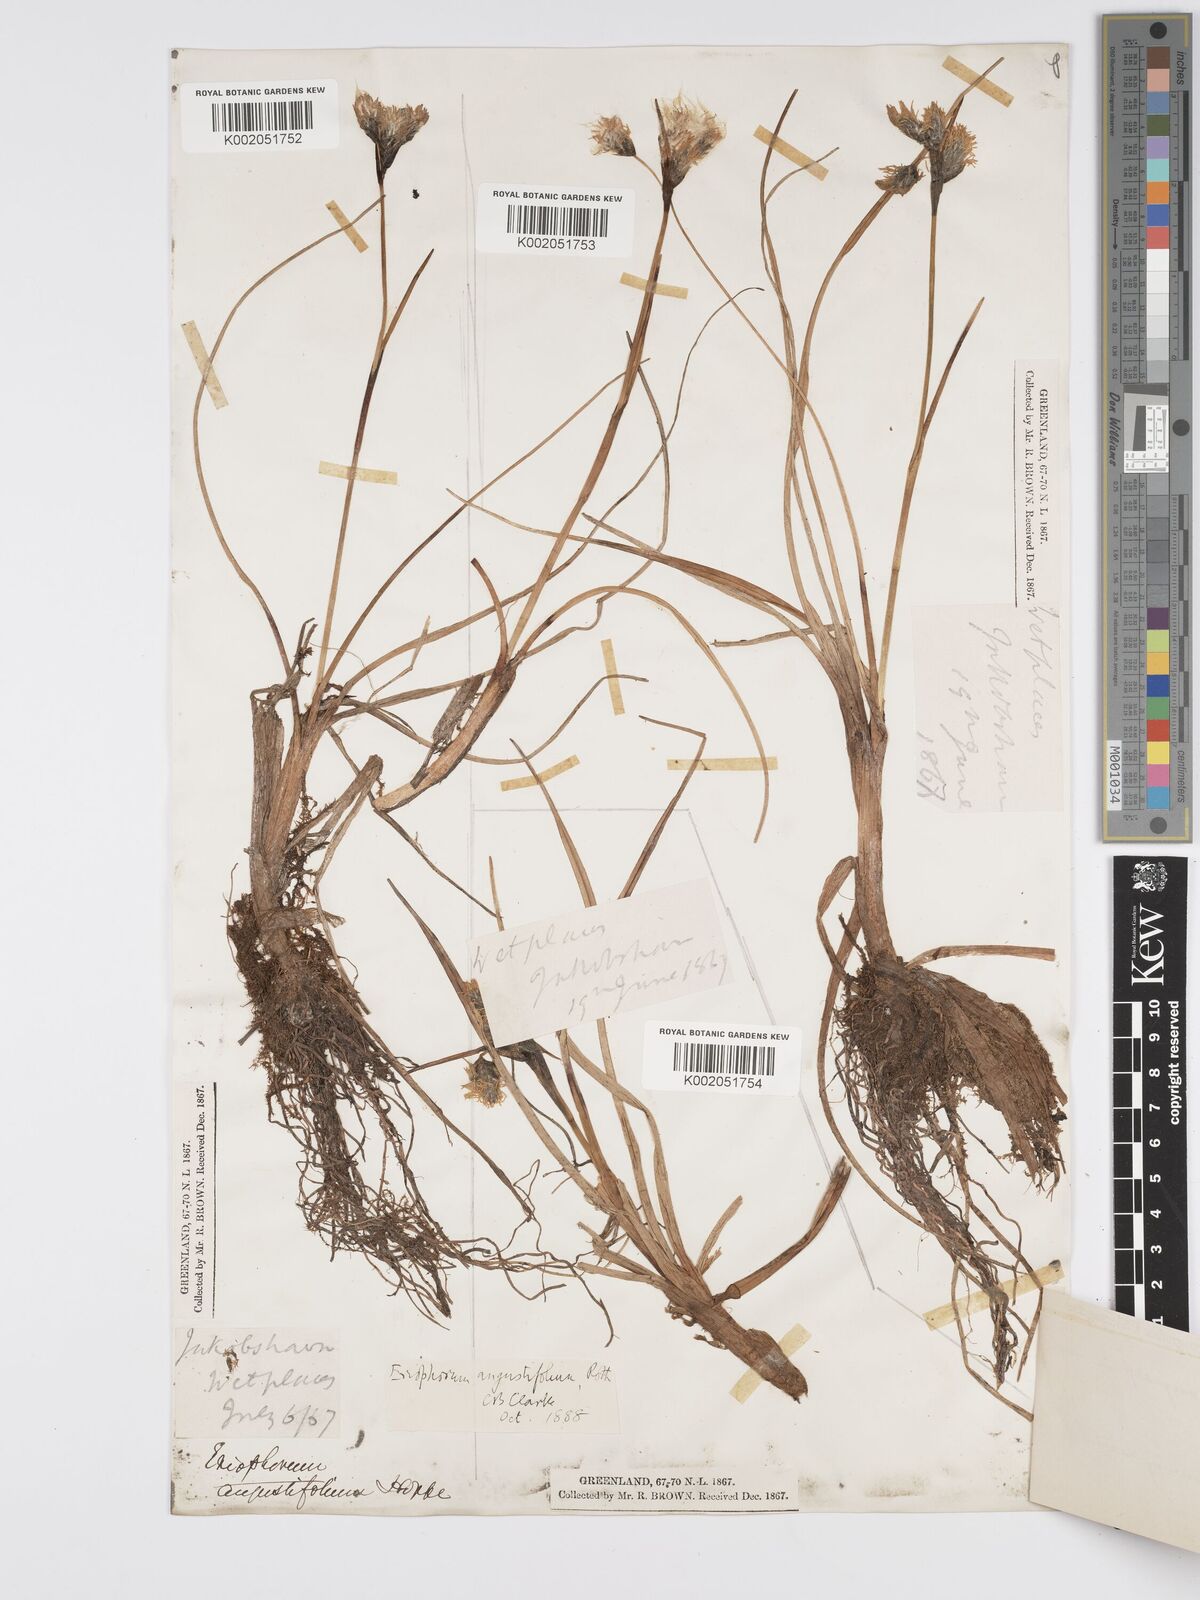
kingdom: Plantae
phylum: Tracheophyta
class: Liliopsida
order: Poales
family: Cyperaceae
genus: Eriophorum
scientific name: Eriophorum angustifolium
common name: Common cottongrass
